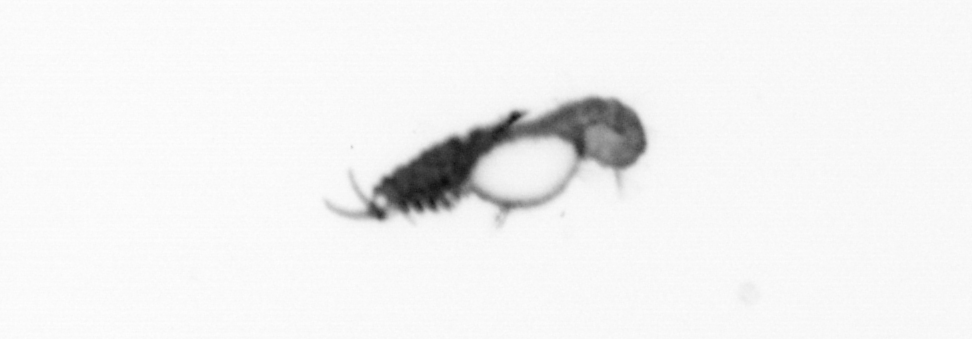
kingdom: Animalia
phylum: Annelida
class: Polychaeta
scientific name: Polychaeta
